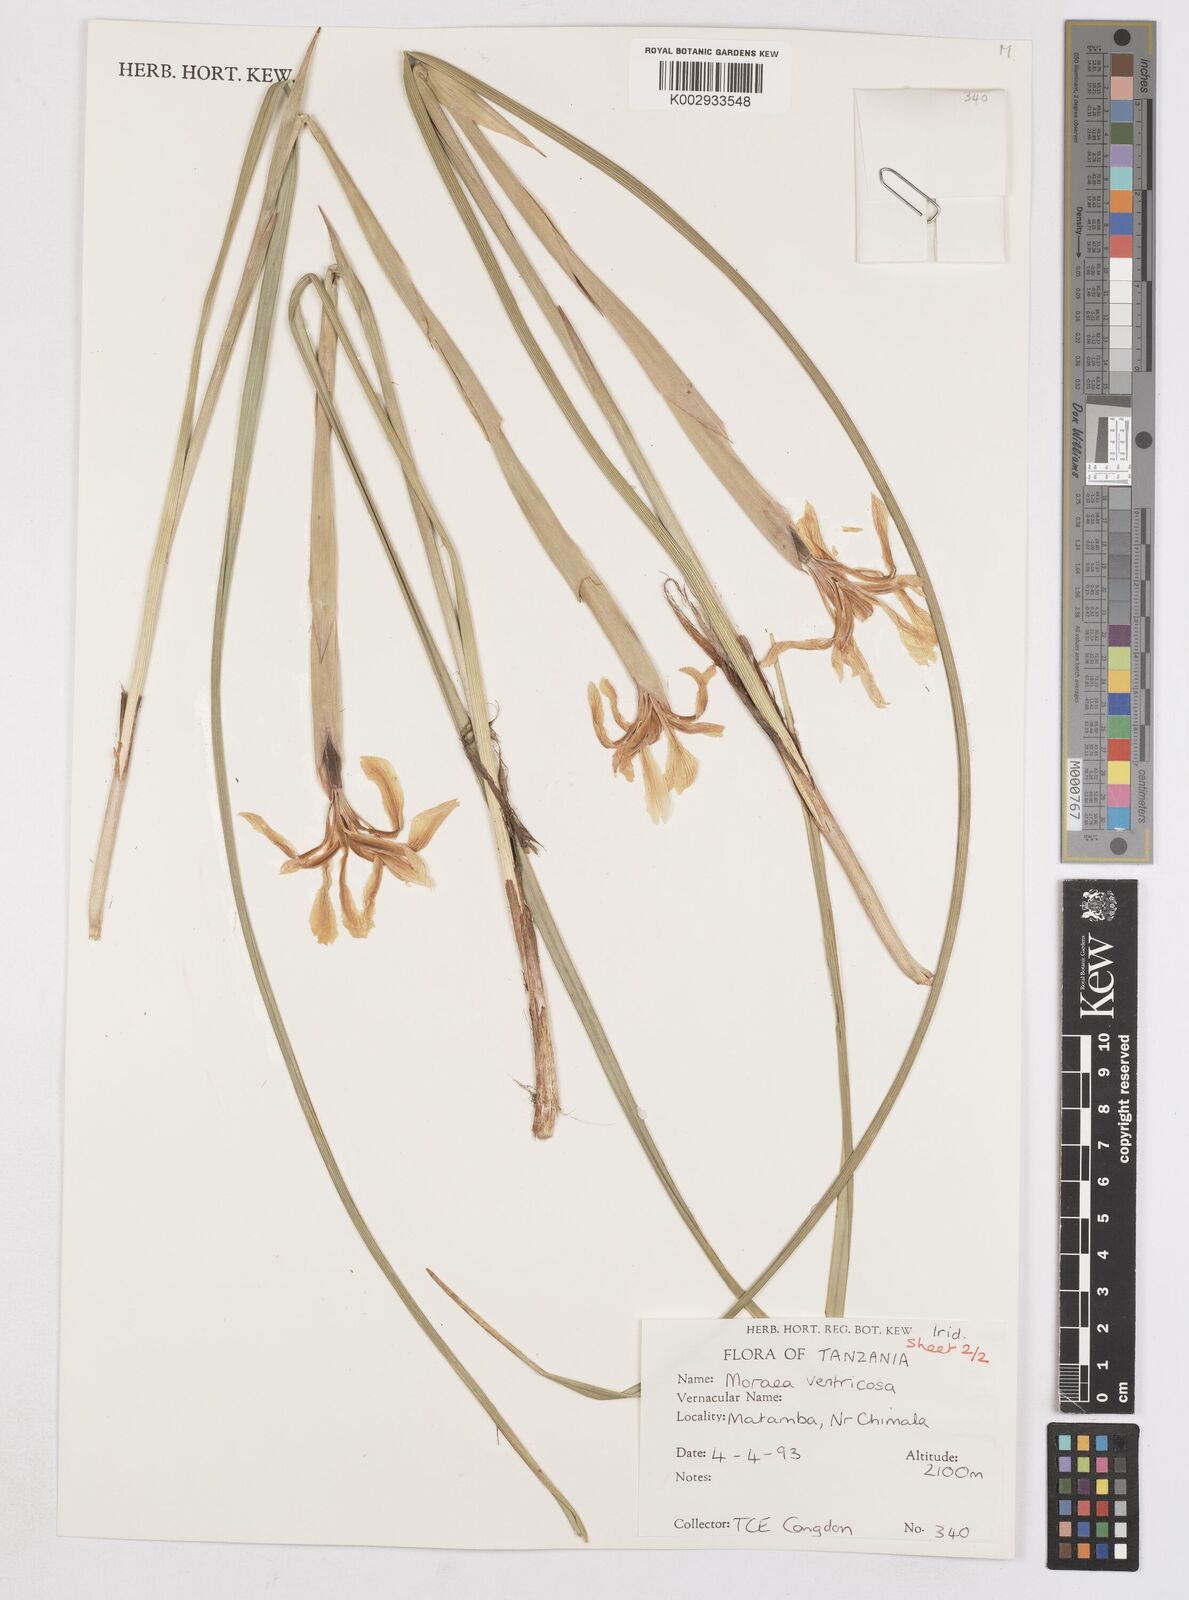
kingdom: Plantae
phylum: Tracheophyta
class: Liliopsida
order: Asparagales
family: Iridaceae
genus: Moraea
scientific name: Moraea ventricosa
